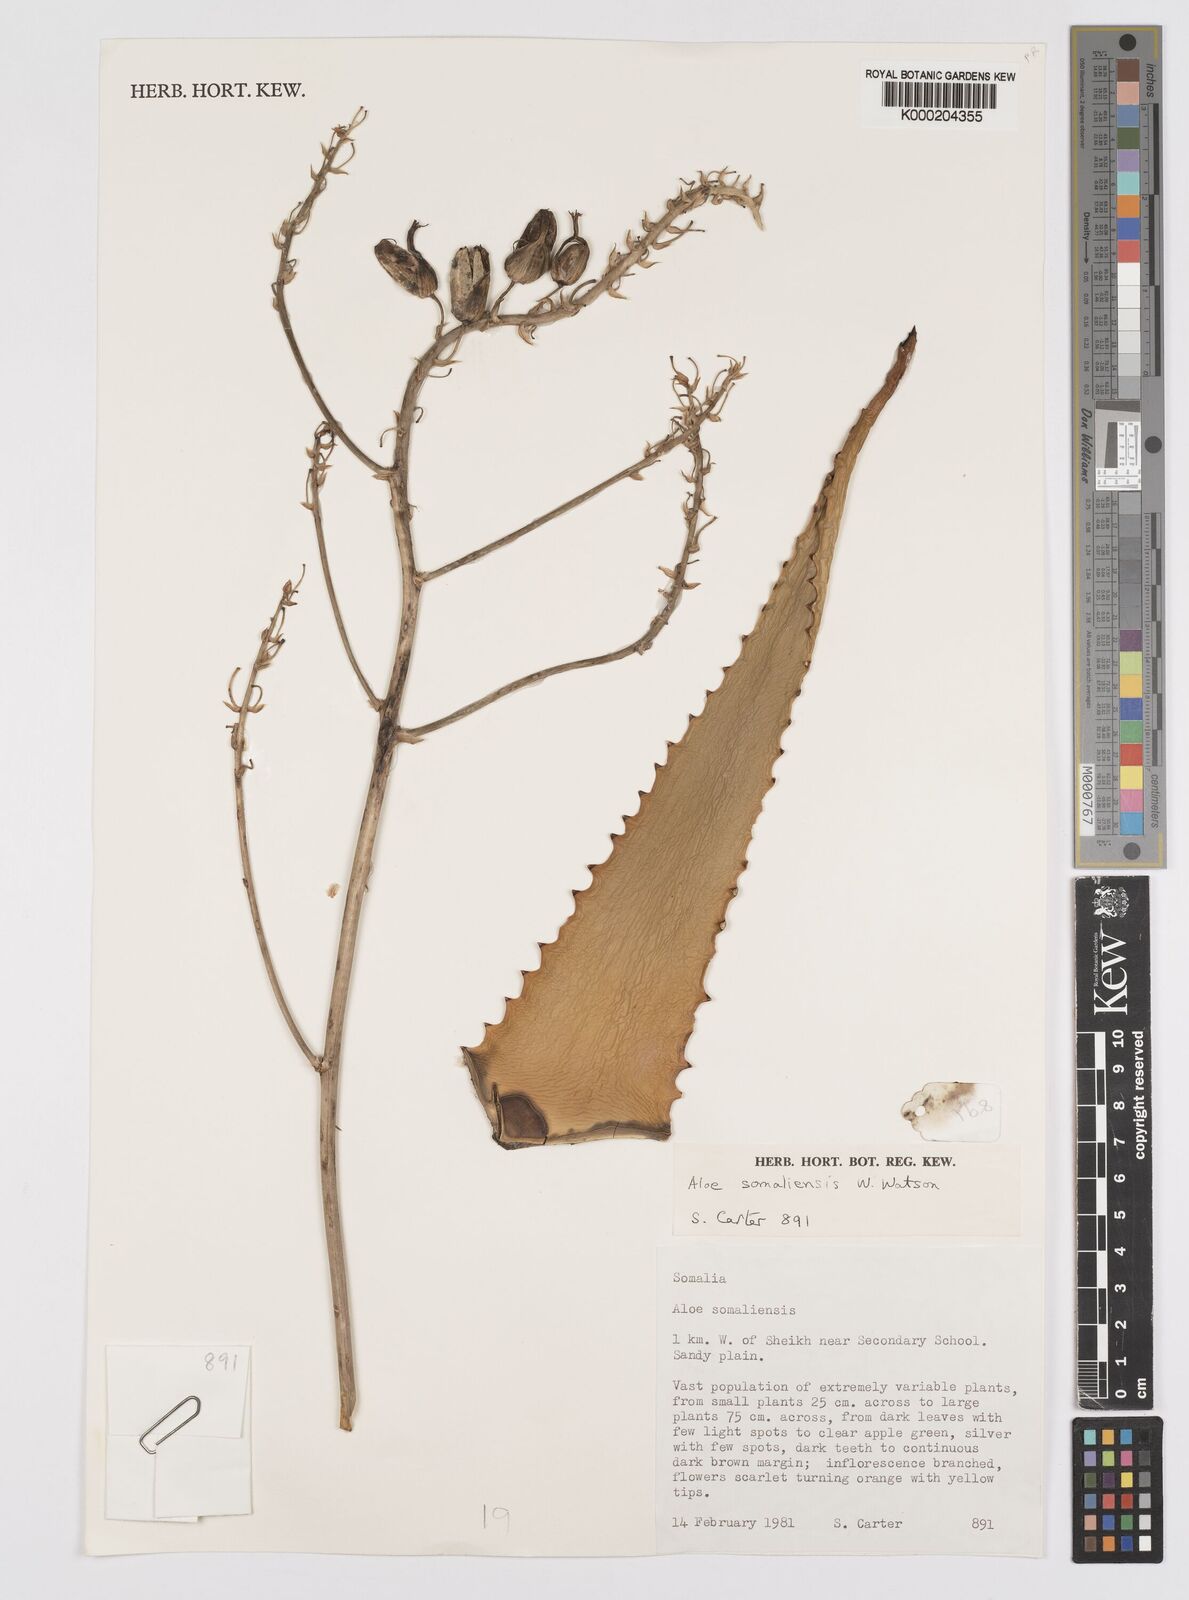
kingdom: Plantae
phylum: Tracheophyta
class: Liliopsida
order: Asparagales
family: Asphodelaceae
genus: Aloe
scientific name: Aloe somaliensis
